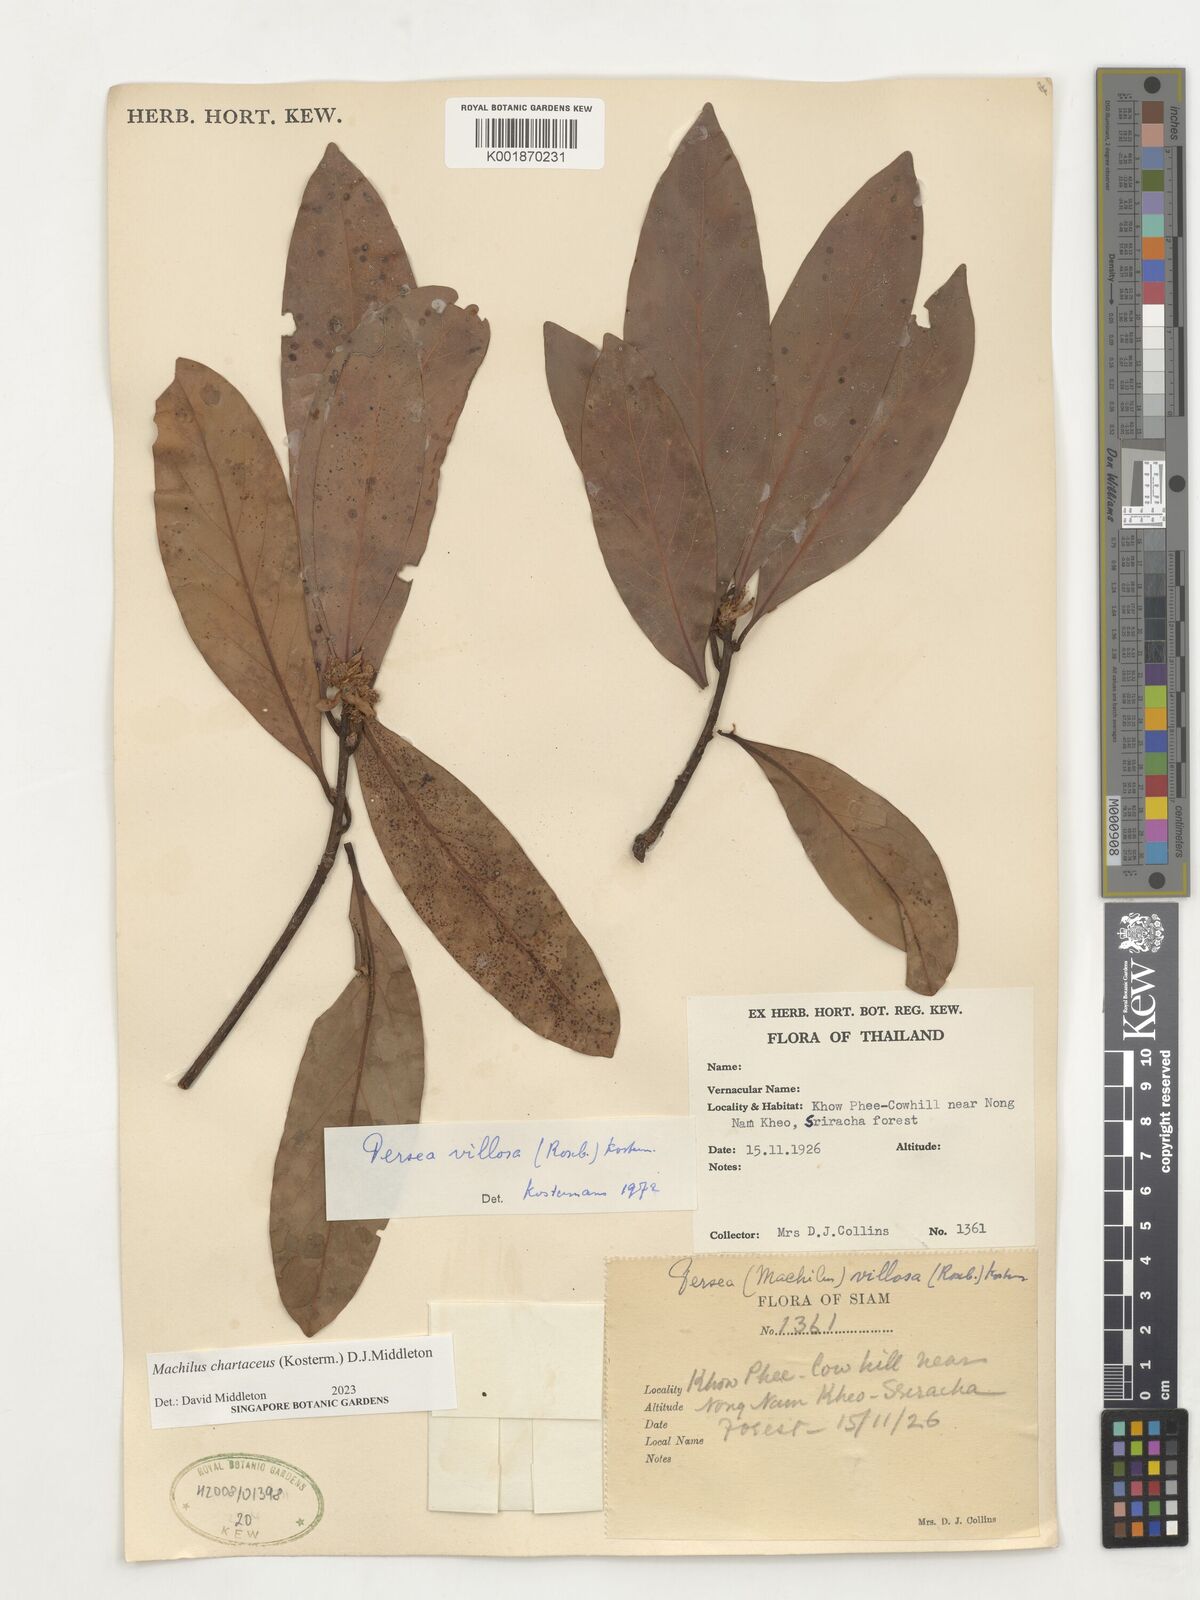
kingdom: Plantae
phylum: Tracheophyta
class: Magnoliopsida
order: Laurales
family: Lauraceae
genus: Machilus
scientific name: Machilus
